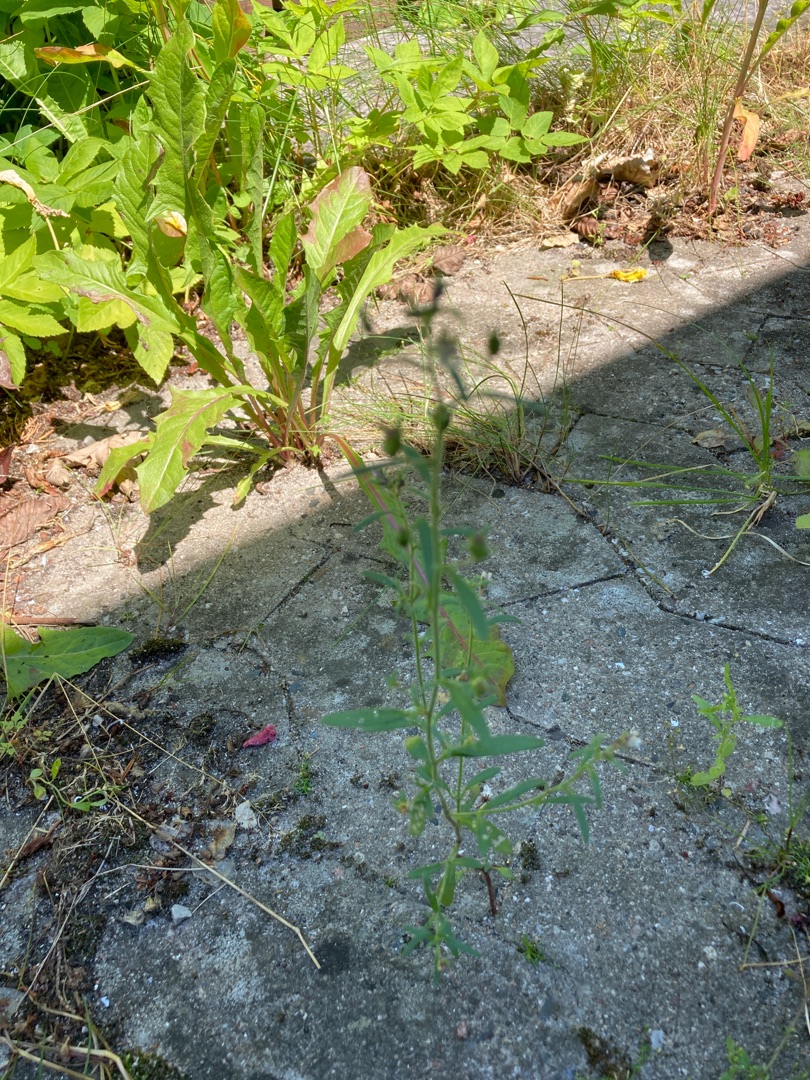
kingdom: Plantae
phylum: Tracheophyta
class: Magnoliopsida
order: Lamiales
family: Plantaginaceae
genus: Chaenorhinum
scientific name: Chaenorhinum minus
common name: Liden torskemund
